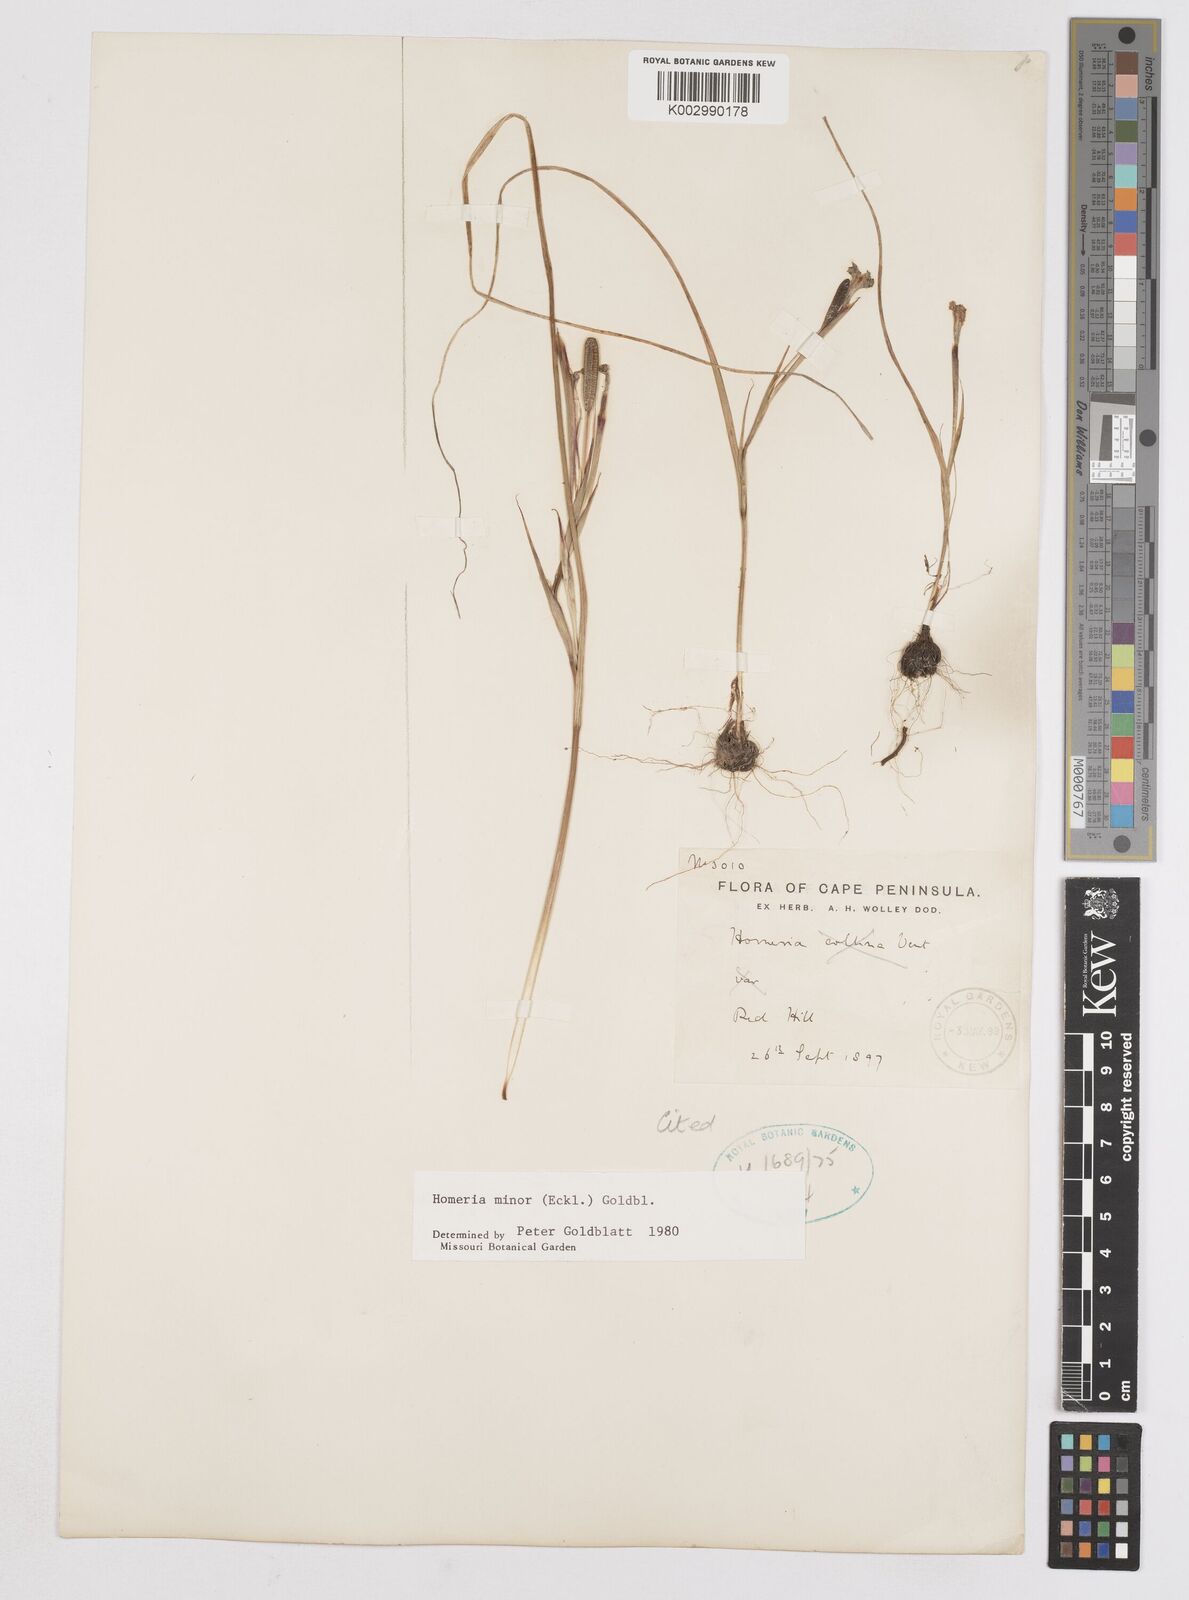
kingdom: Plantae
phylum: Tracheophyta
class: Liliopsida
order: Asparagales
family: Iridaceae
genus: Moraea
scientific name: Moraea minor
